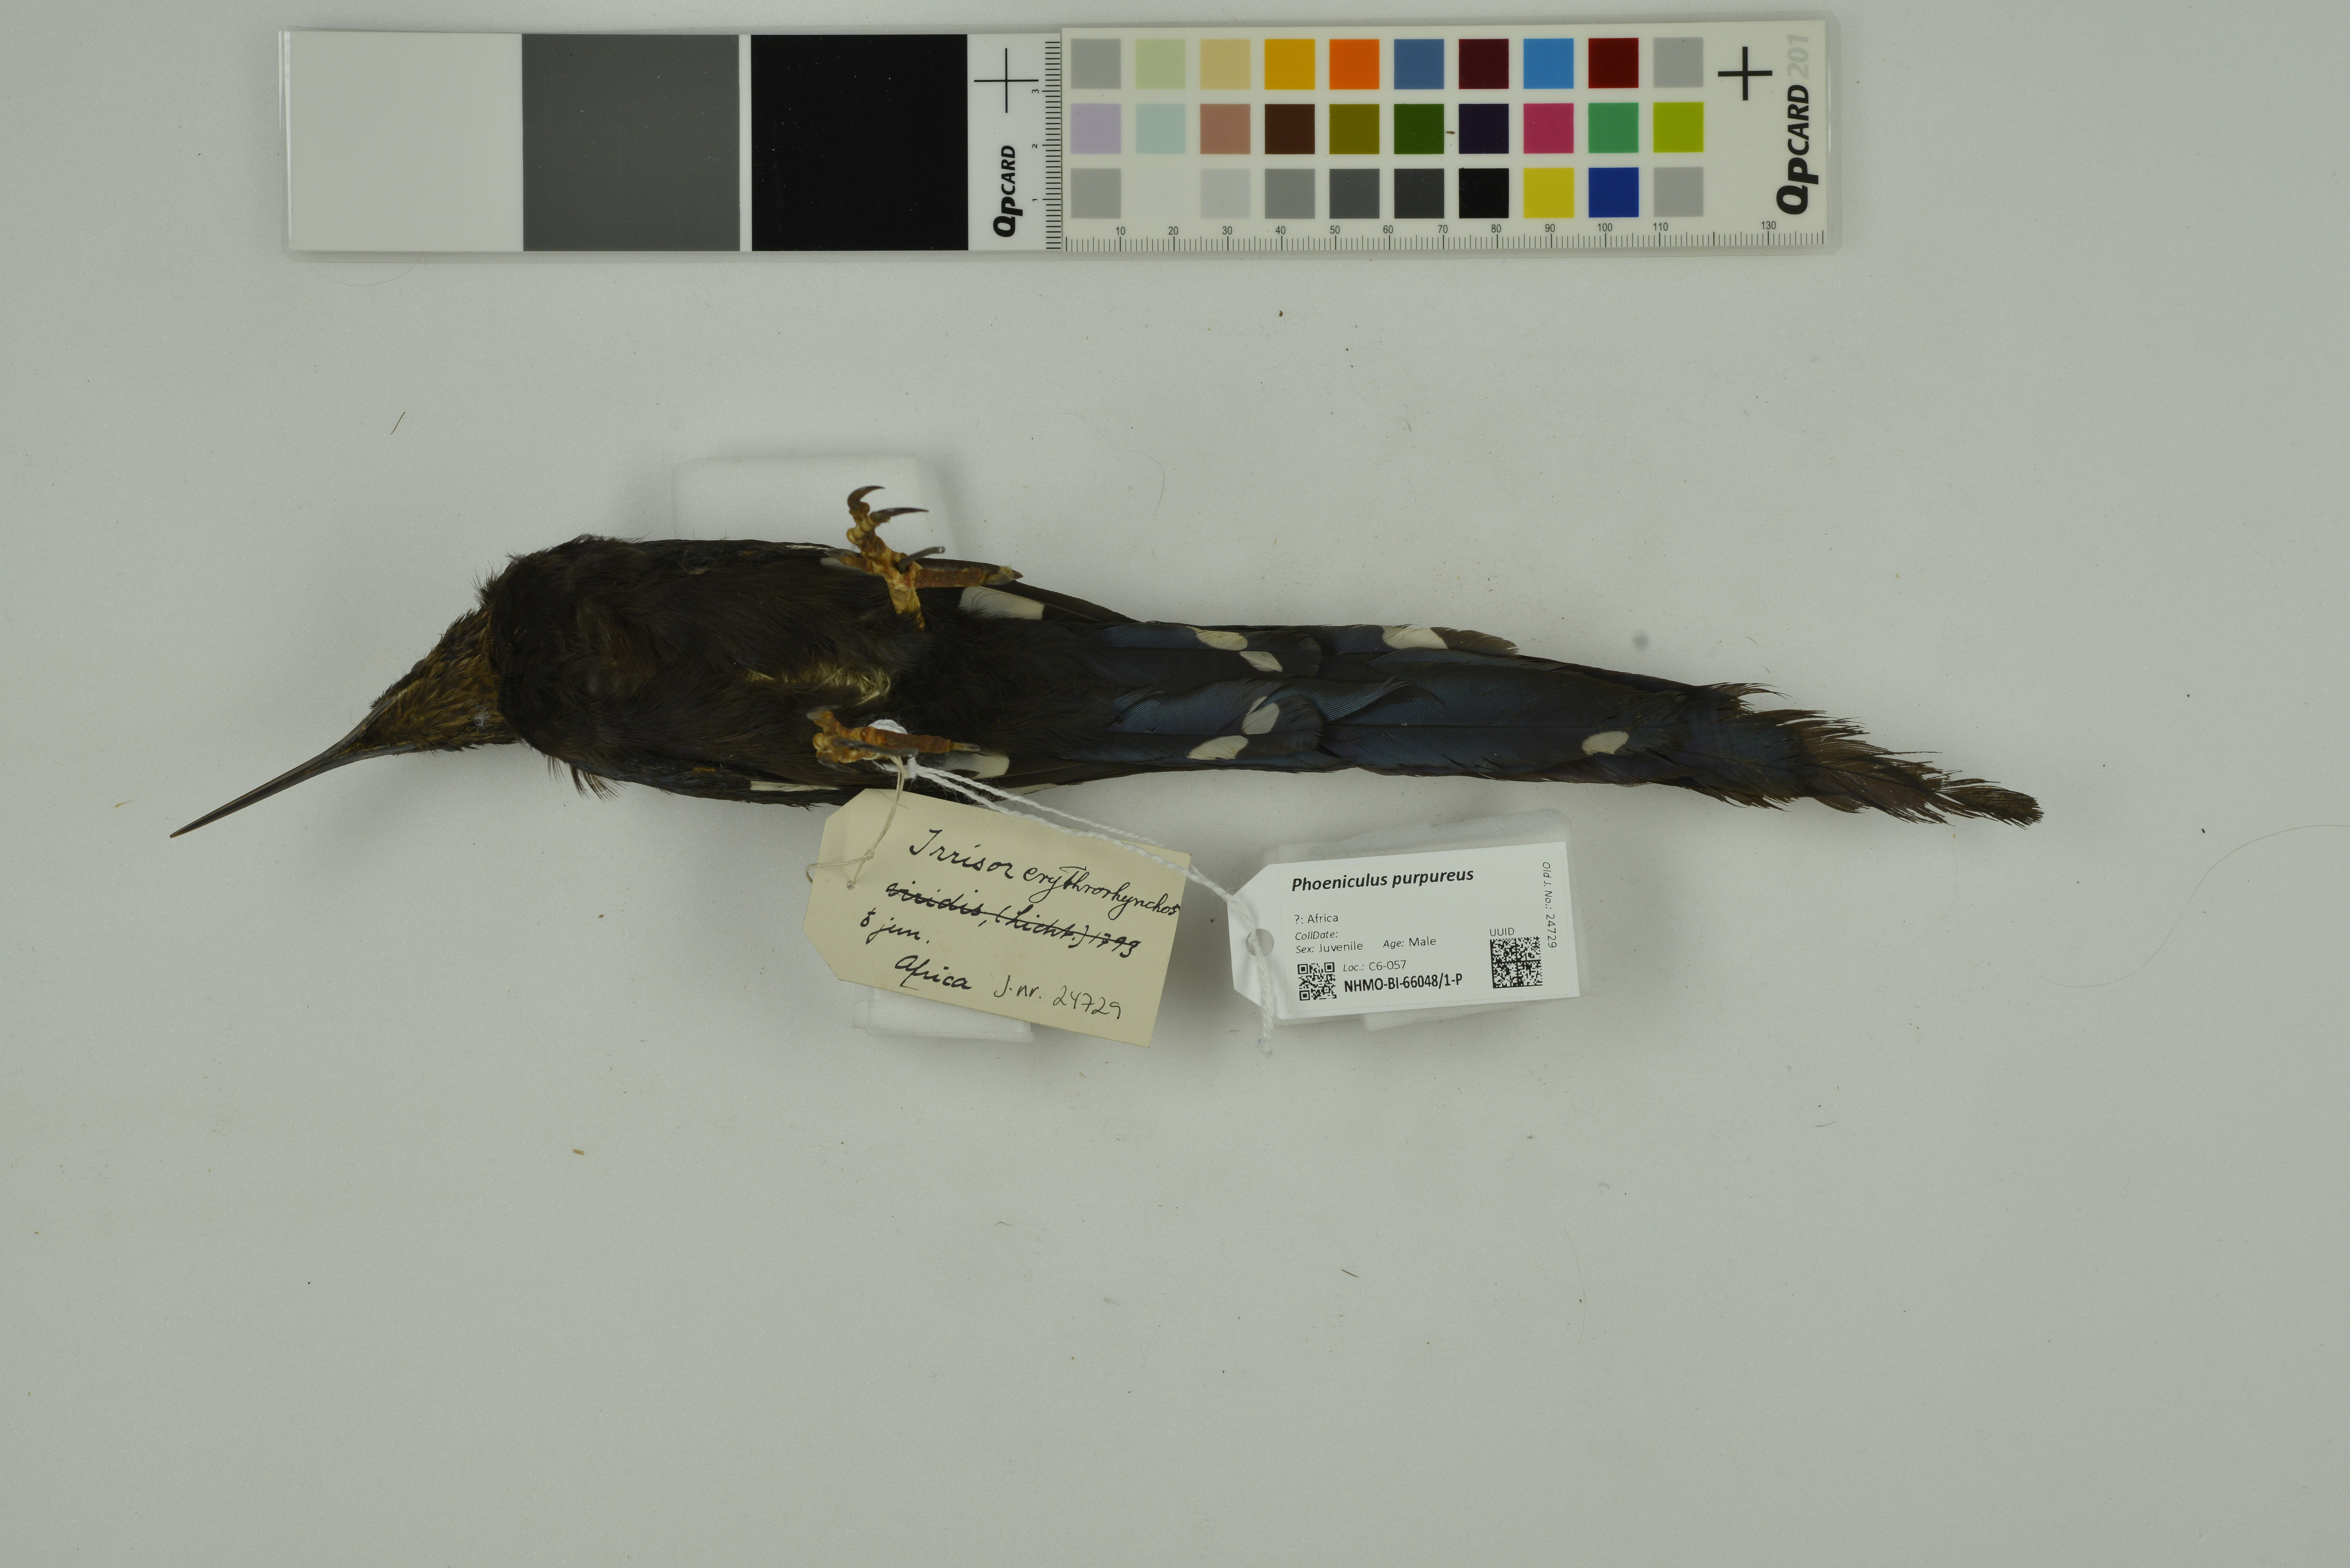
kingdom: Animalia
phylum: Chordata
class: Aves
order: Bucerotiformes
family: Phoeniculidae
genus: Phoeniculus
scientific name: Phoeniculus purpureus
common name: Green woodhoopoe
